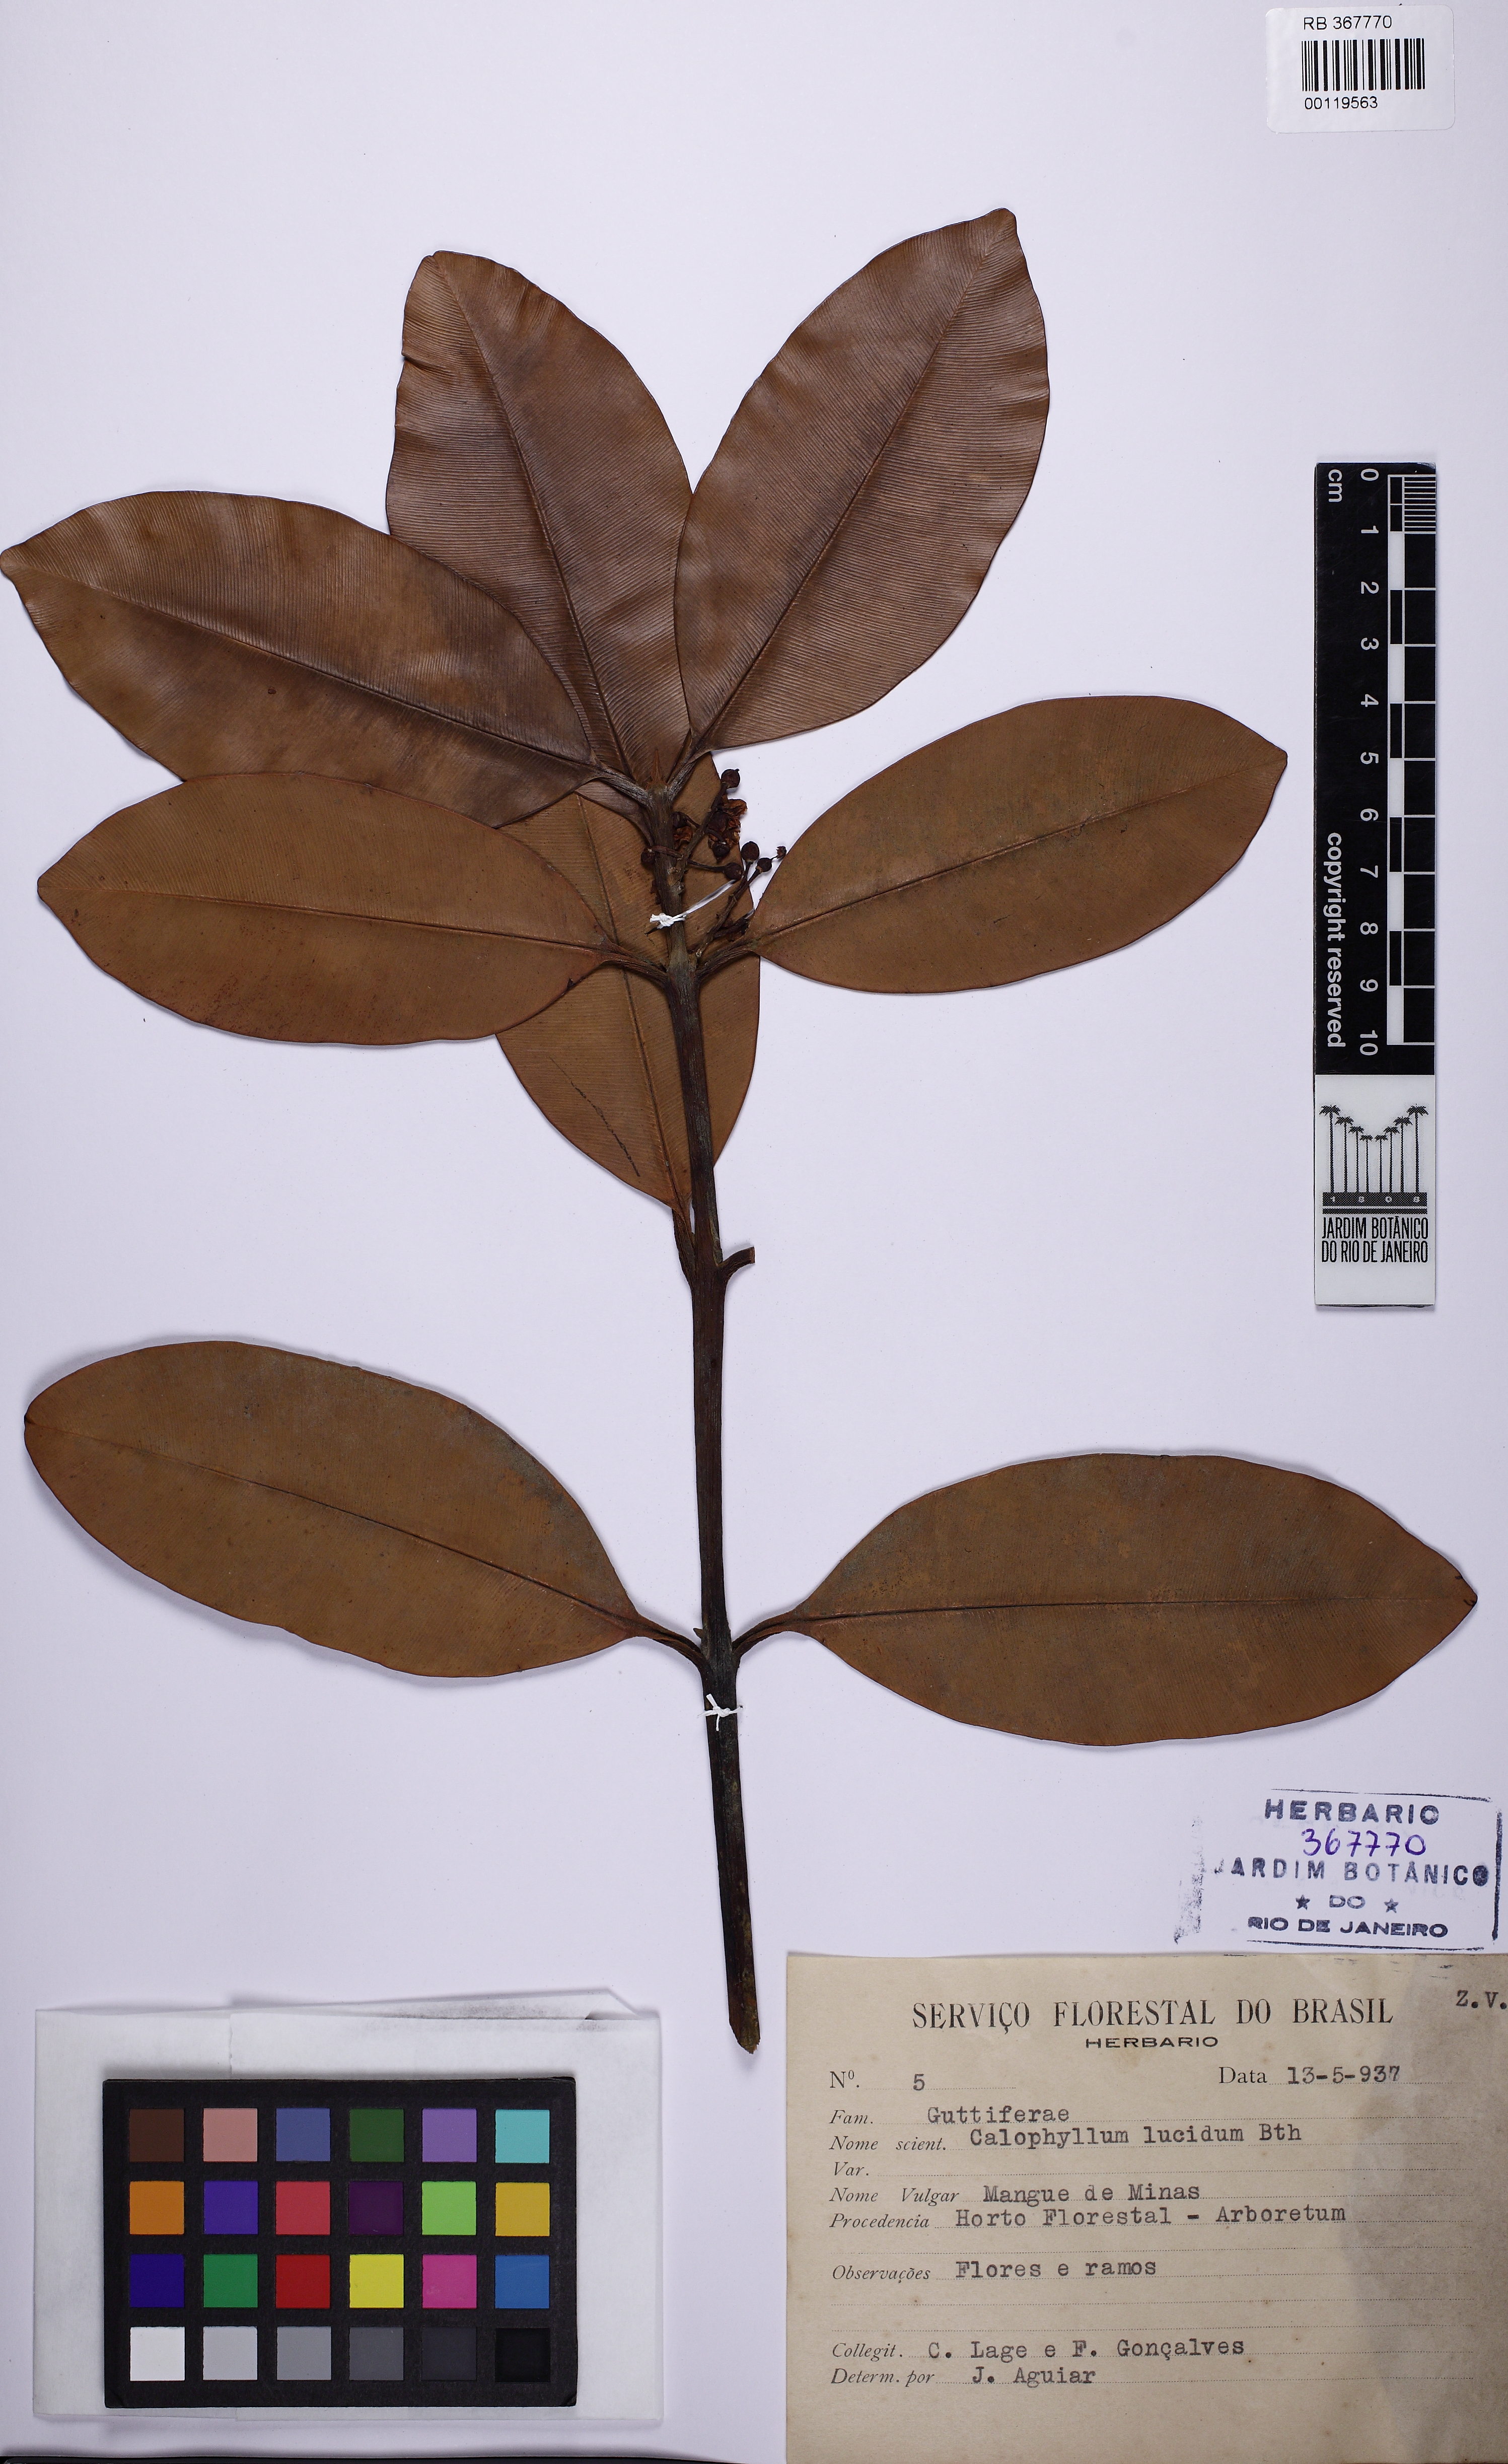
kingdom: Plantae
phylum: Tracheophyta
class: Magnoliopsida
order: Malpighiales
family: Calophyllaceae
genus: Calophyllum
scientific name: Calophyllum brasiliense
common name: Santa maria
